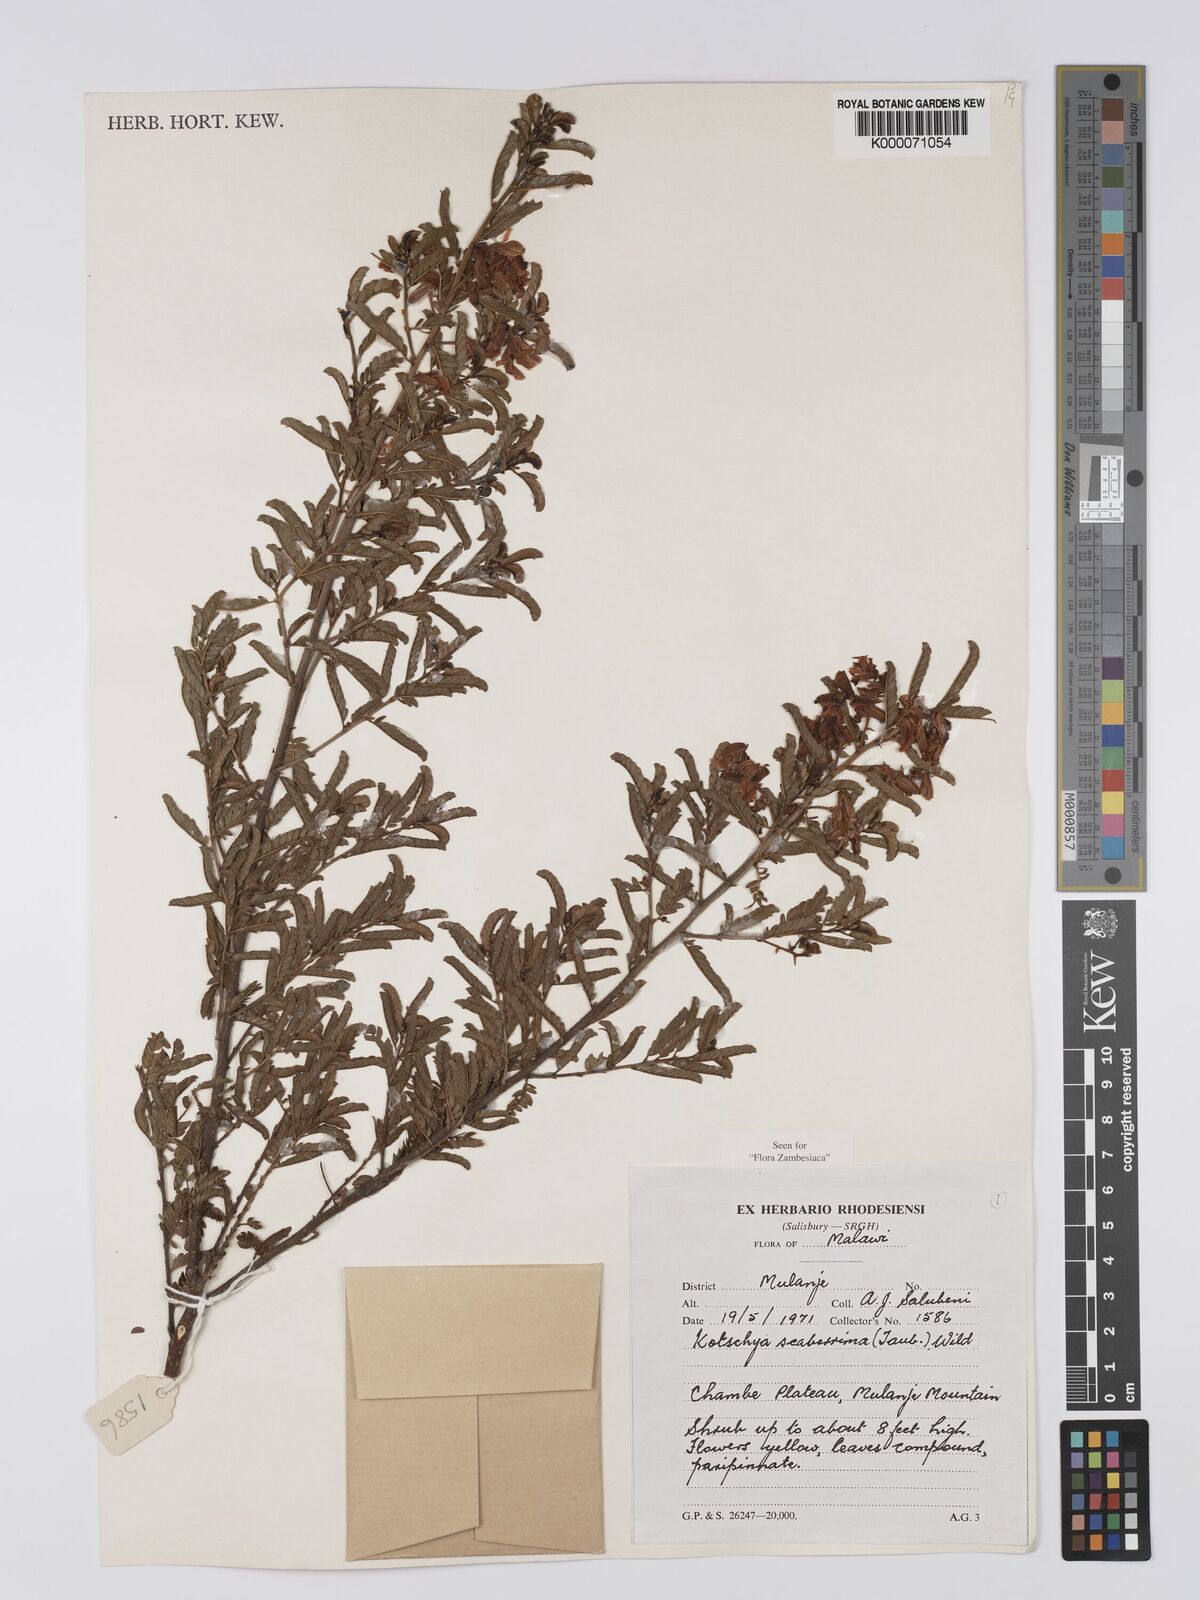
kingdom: Plantae
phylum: Tracheophyta
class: Magnoliopsida
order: Fabales
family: Fabaceae
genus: Kotschya
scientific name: Kotschya scaberrima
